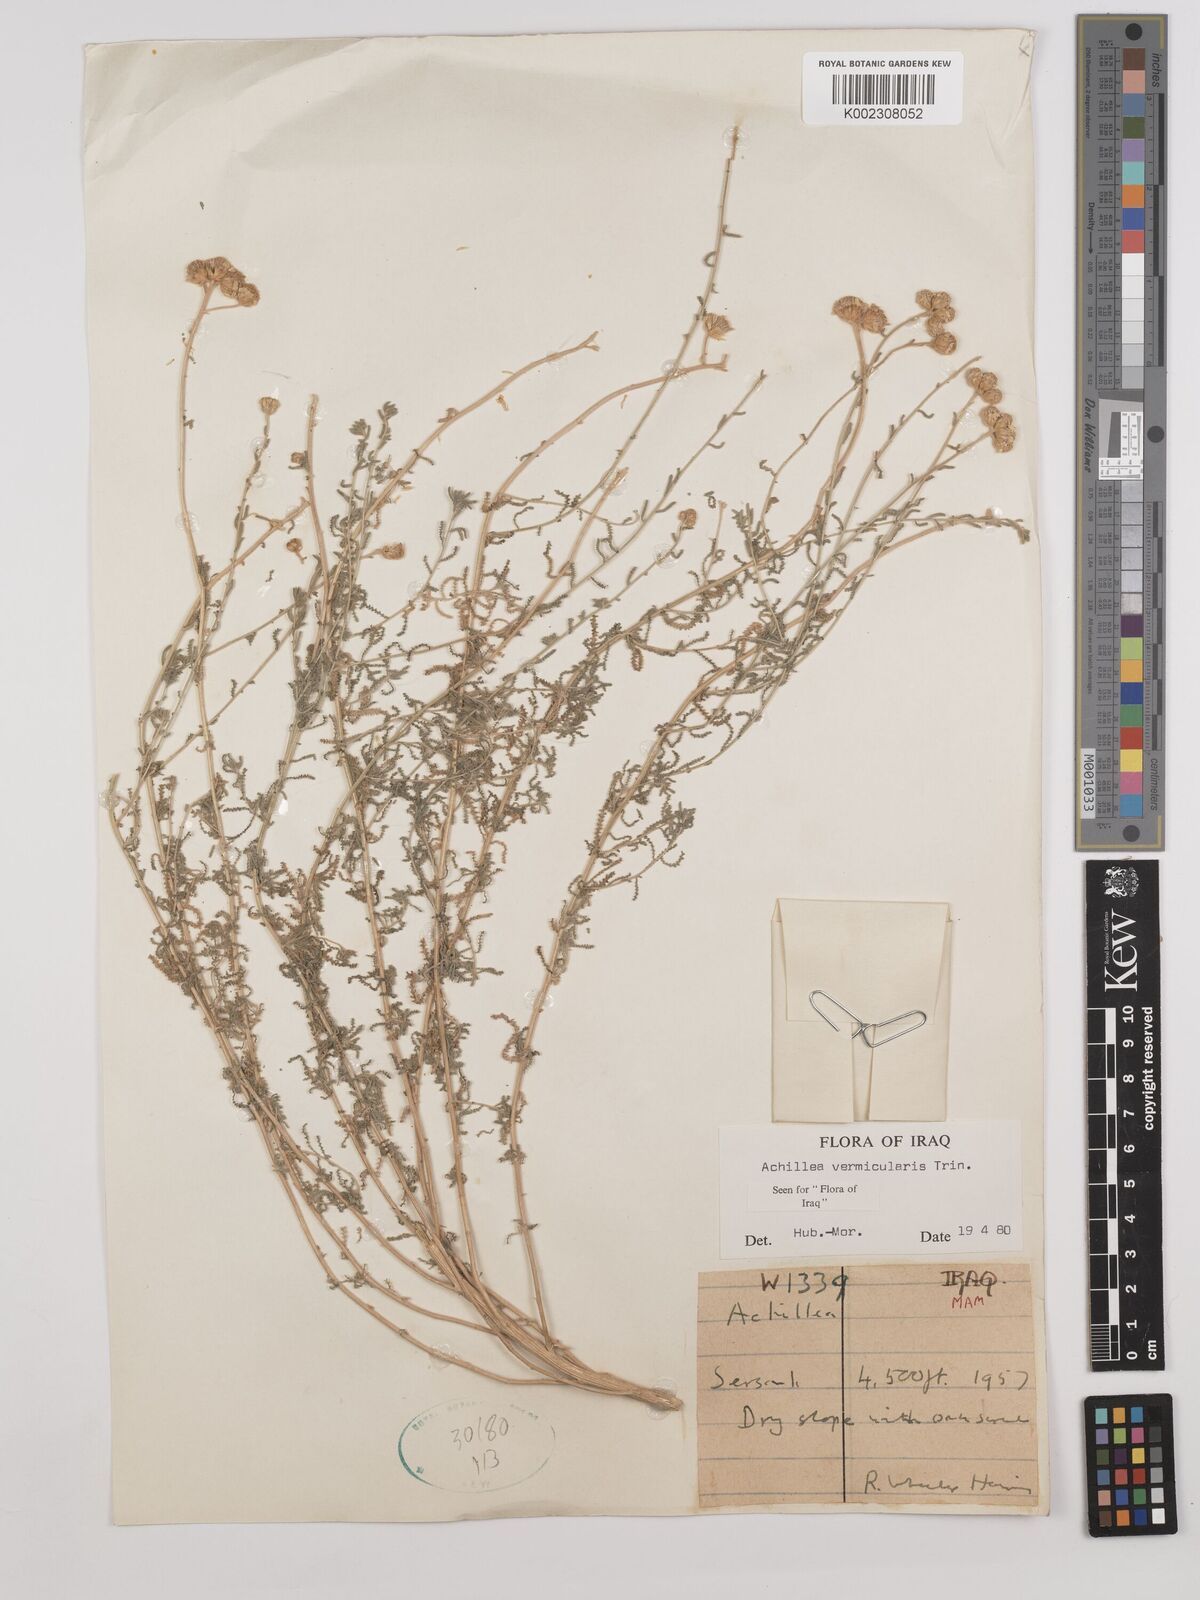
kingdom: Plantae
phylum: Tracheophyta
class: Magnoliopsida
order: Asterales
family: Asteraceae
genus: Achillea
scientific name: Achillea vermicularis
